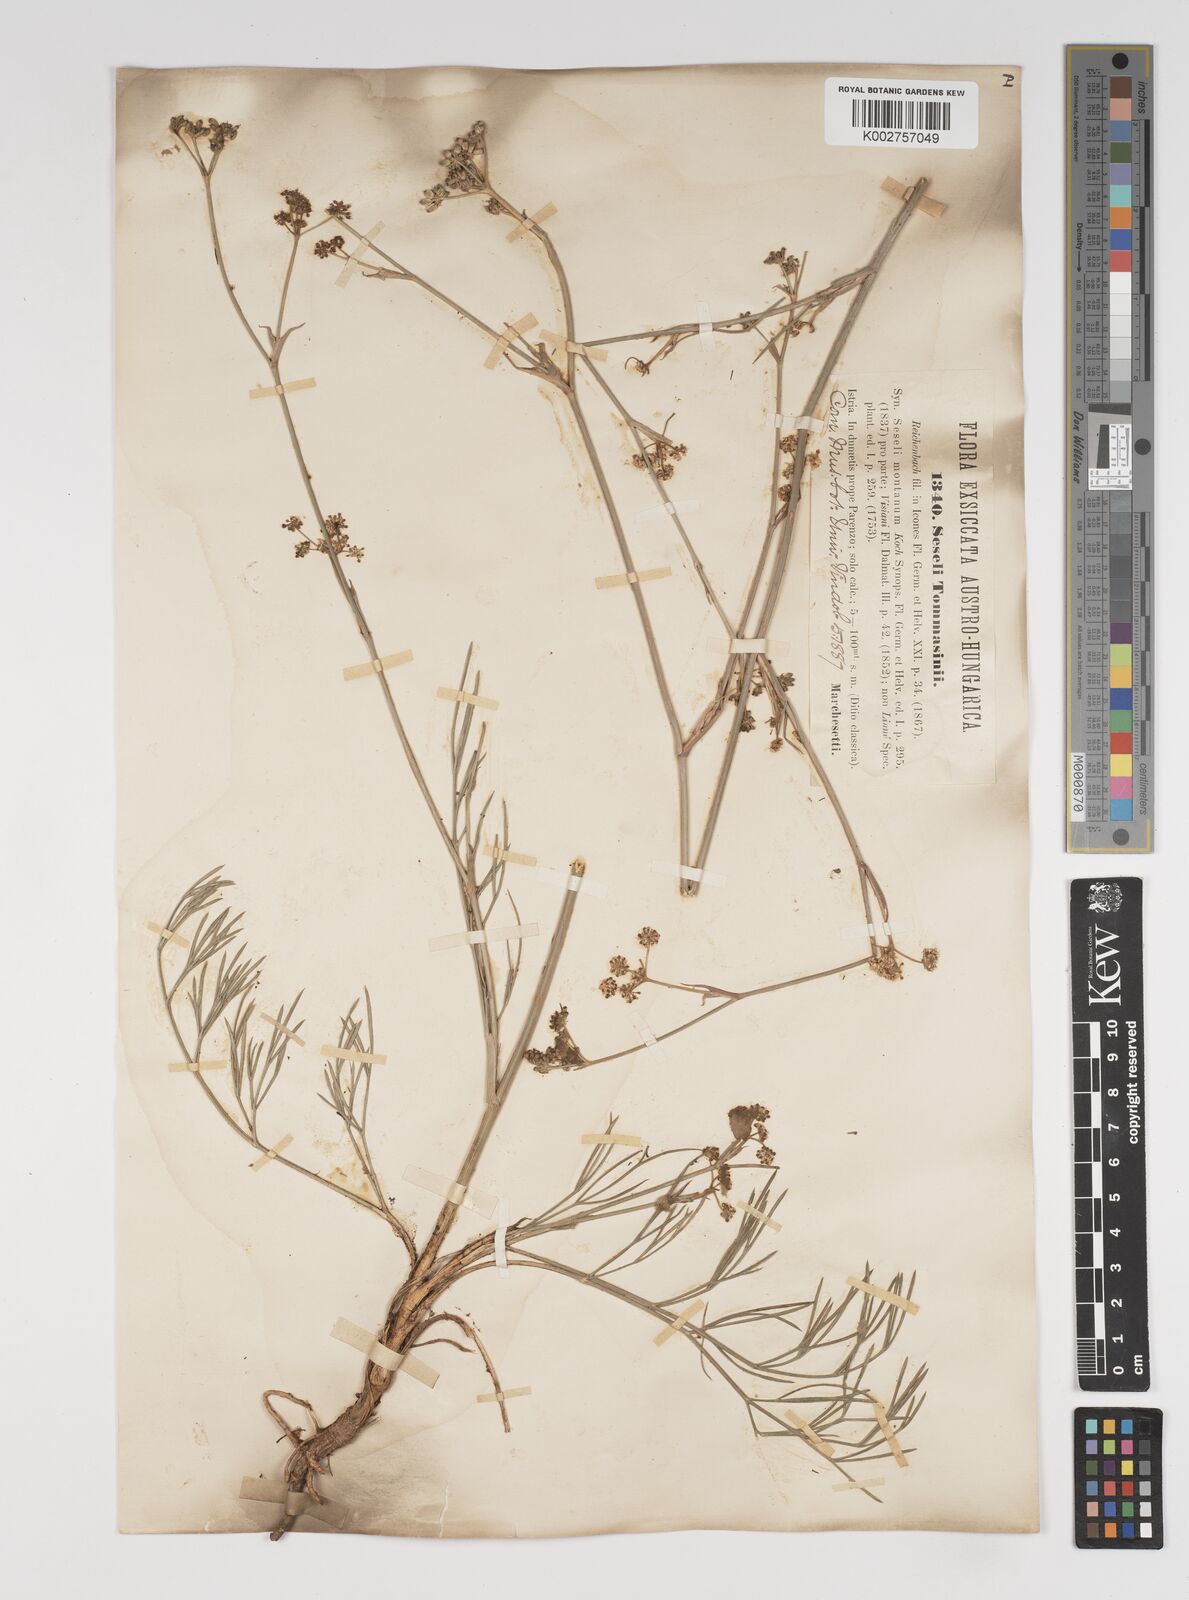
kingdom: Plantae
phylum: Tracheophyta
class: Magnoliopsida
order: Apiales
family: Apiaceae
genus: Seseli
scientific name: Seseli montanum
